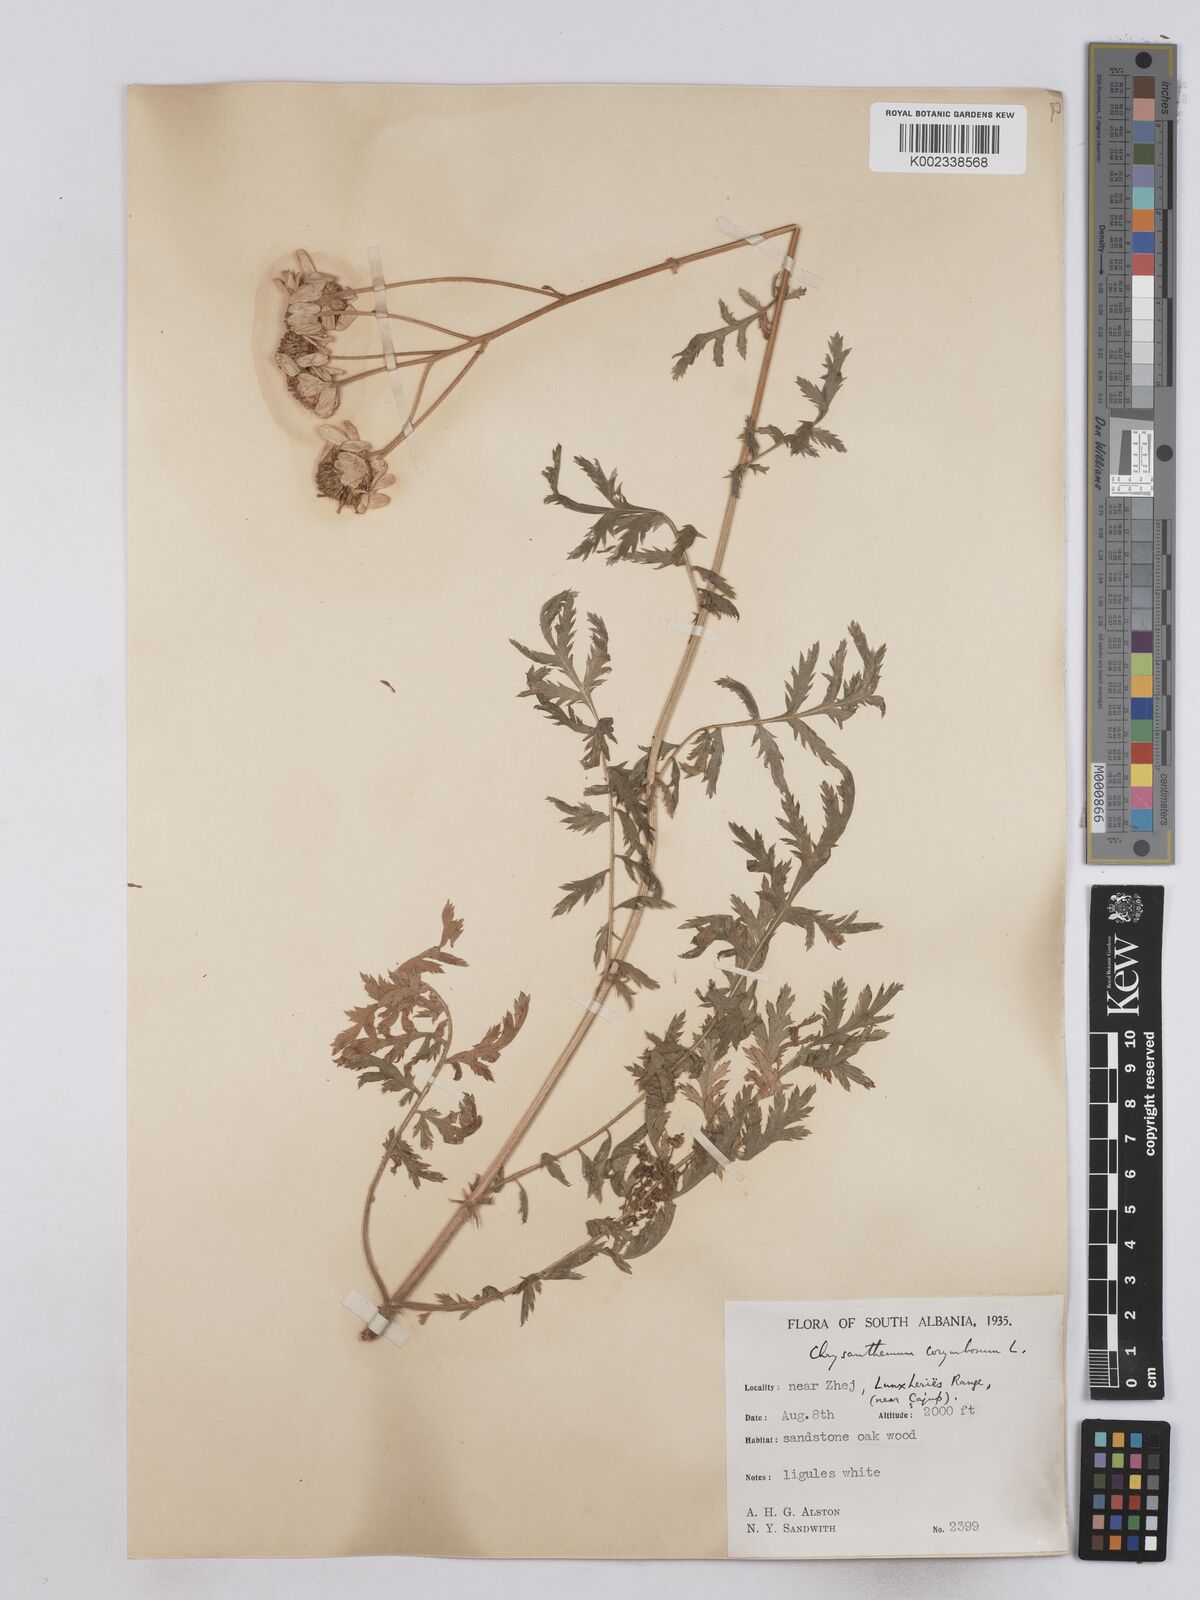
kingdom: Plantae
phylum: Tracheophyta
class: Magnoliopsida
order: Asterales
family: Asteraceae
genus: Tanacetum
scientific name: Tanacetum corymbosum
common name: Scentless feverfew
